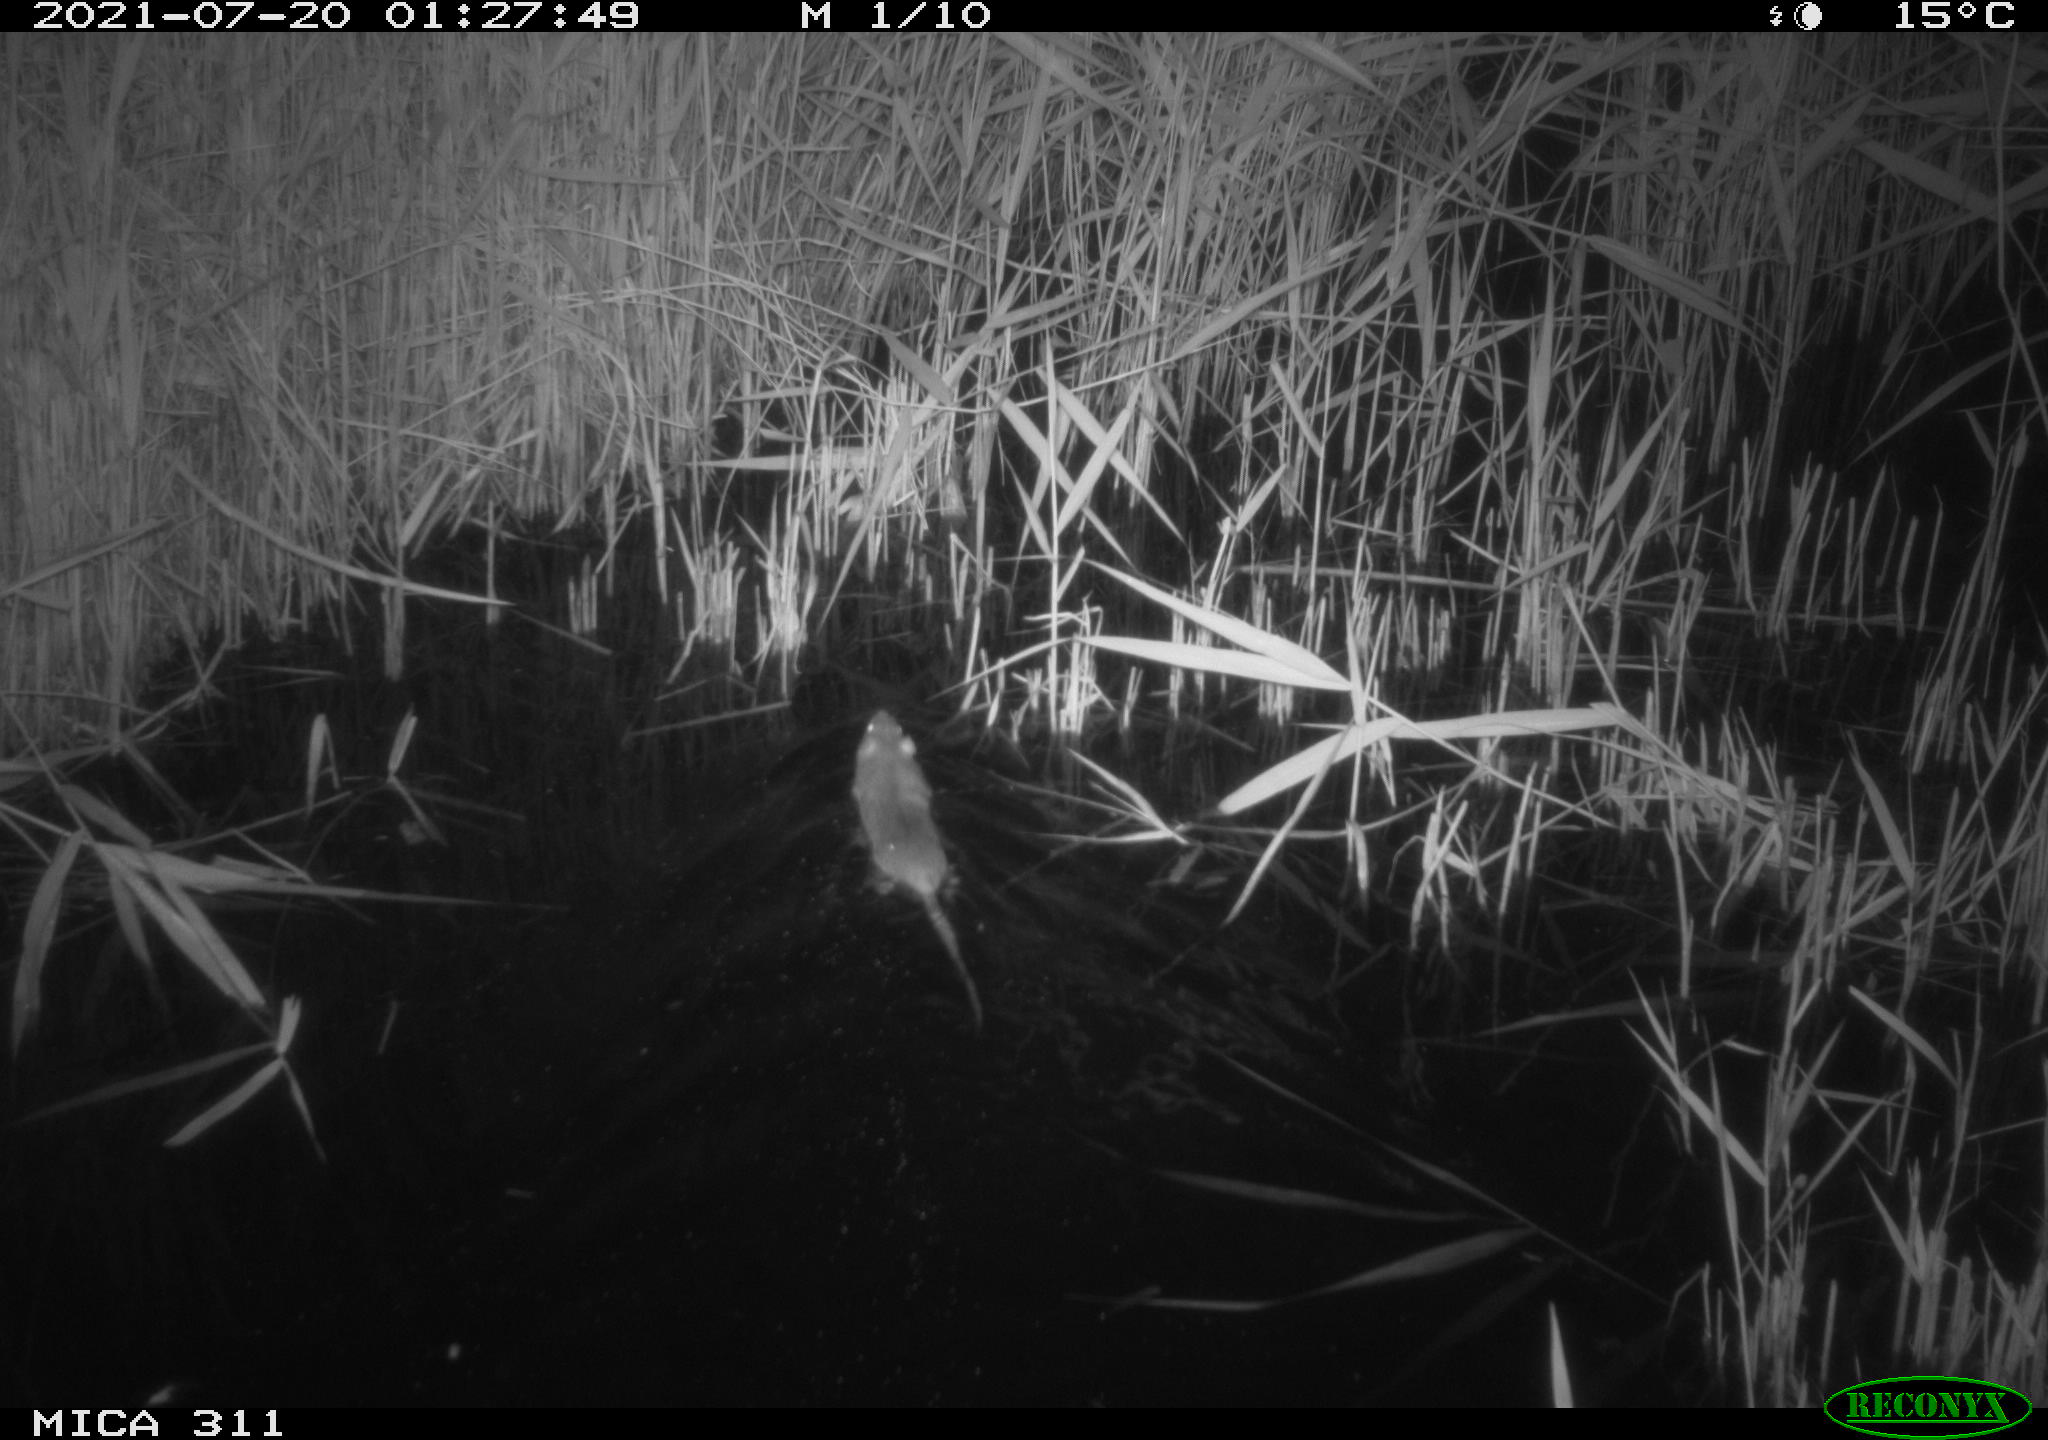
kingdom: Animalia
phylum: Chordata
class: Mammalia
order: Rodentia
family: Muridae
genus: Rattus
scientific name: Rattus norvegicus
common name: Brown rat
